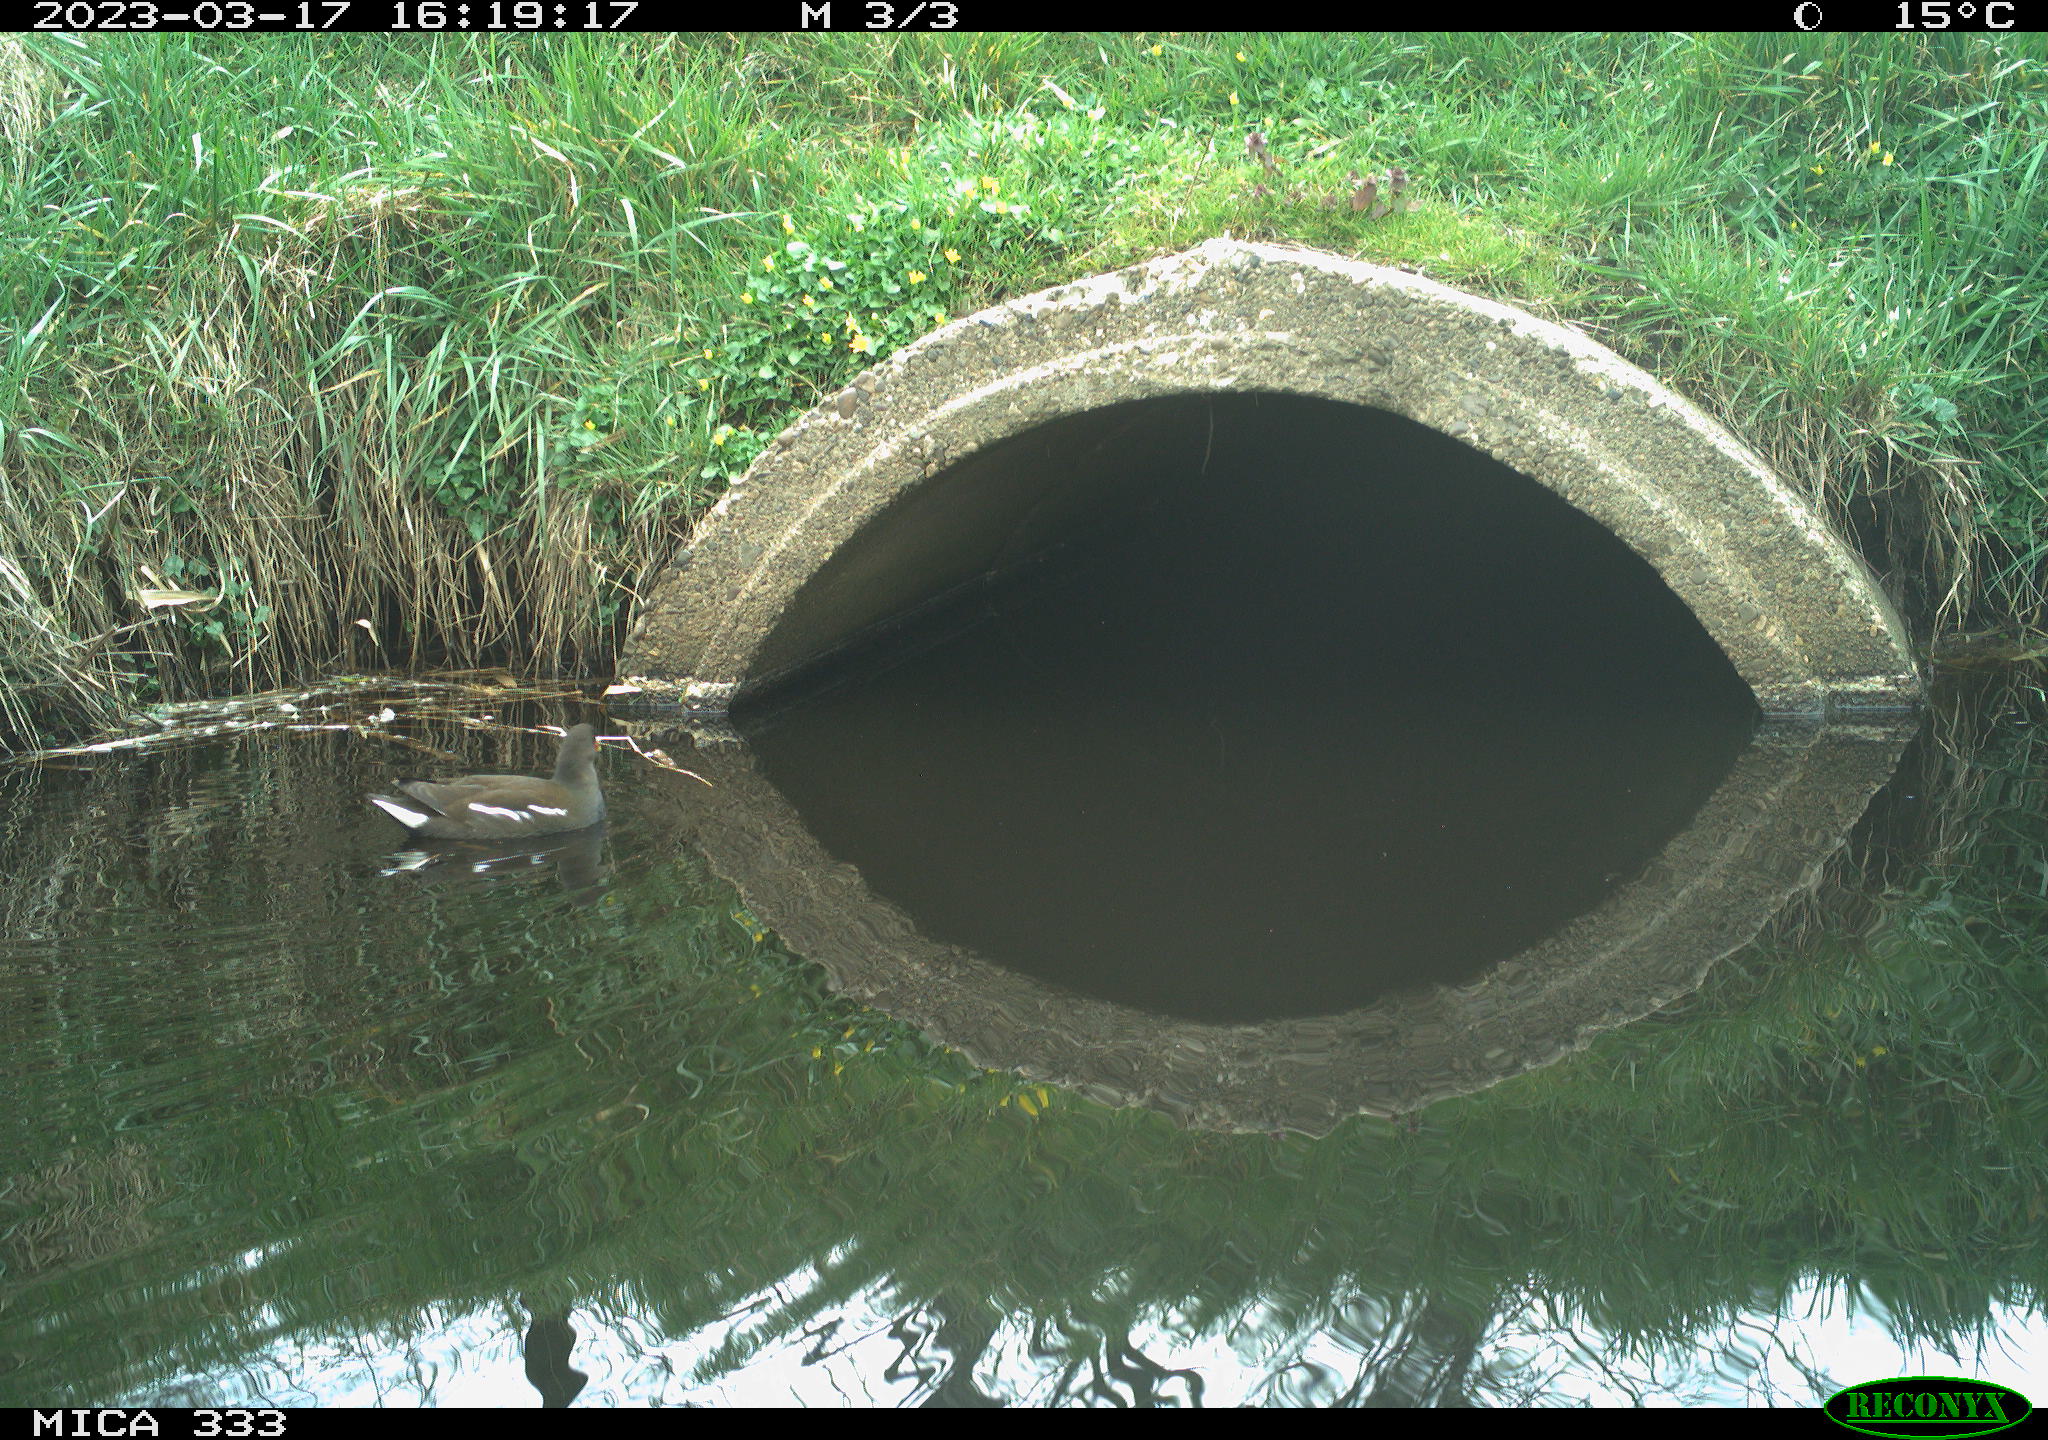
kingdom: Animalia
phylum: Chordata
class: Aves
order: Gruiformes
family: Rallidae
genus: Gallinula
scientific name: Gallinula chloropus
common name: Common moorhen
